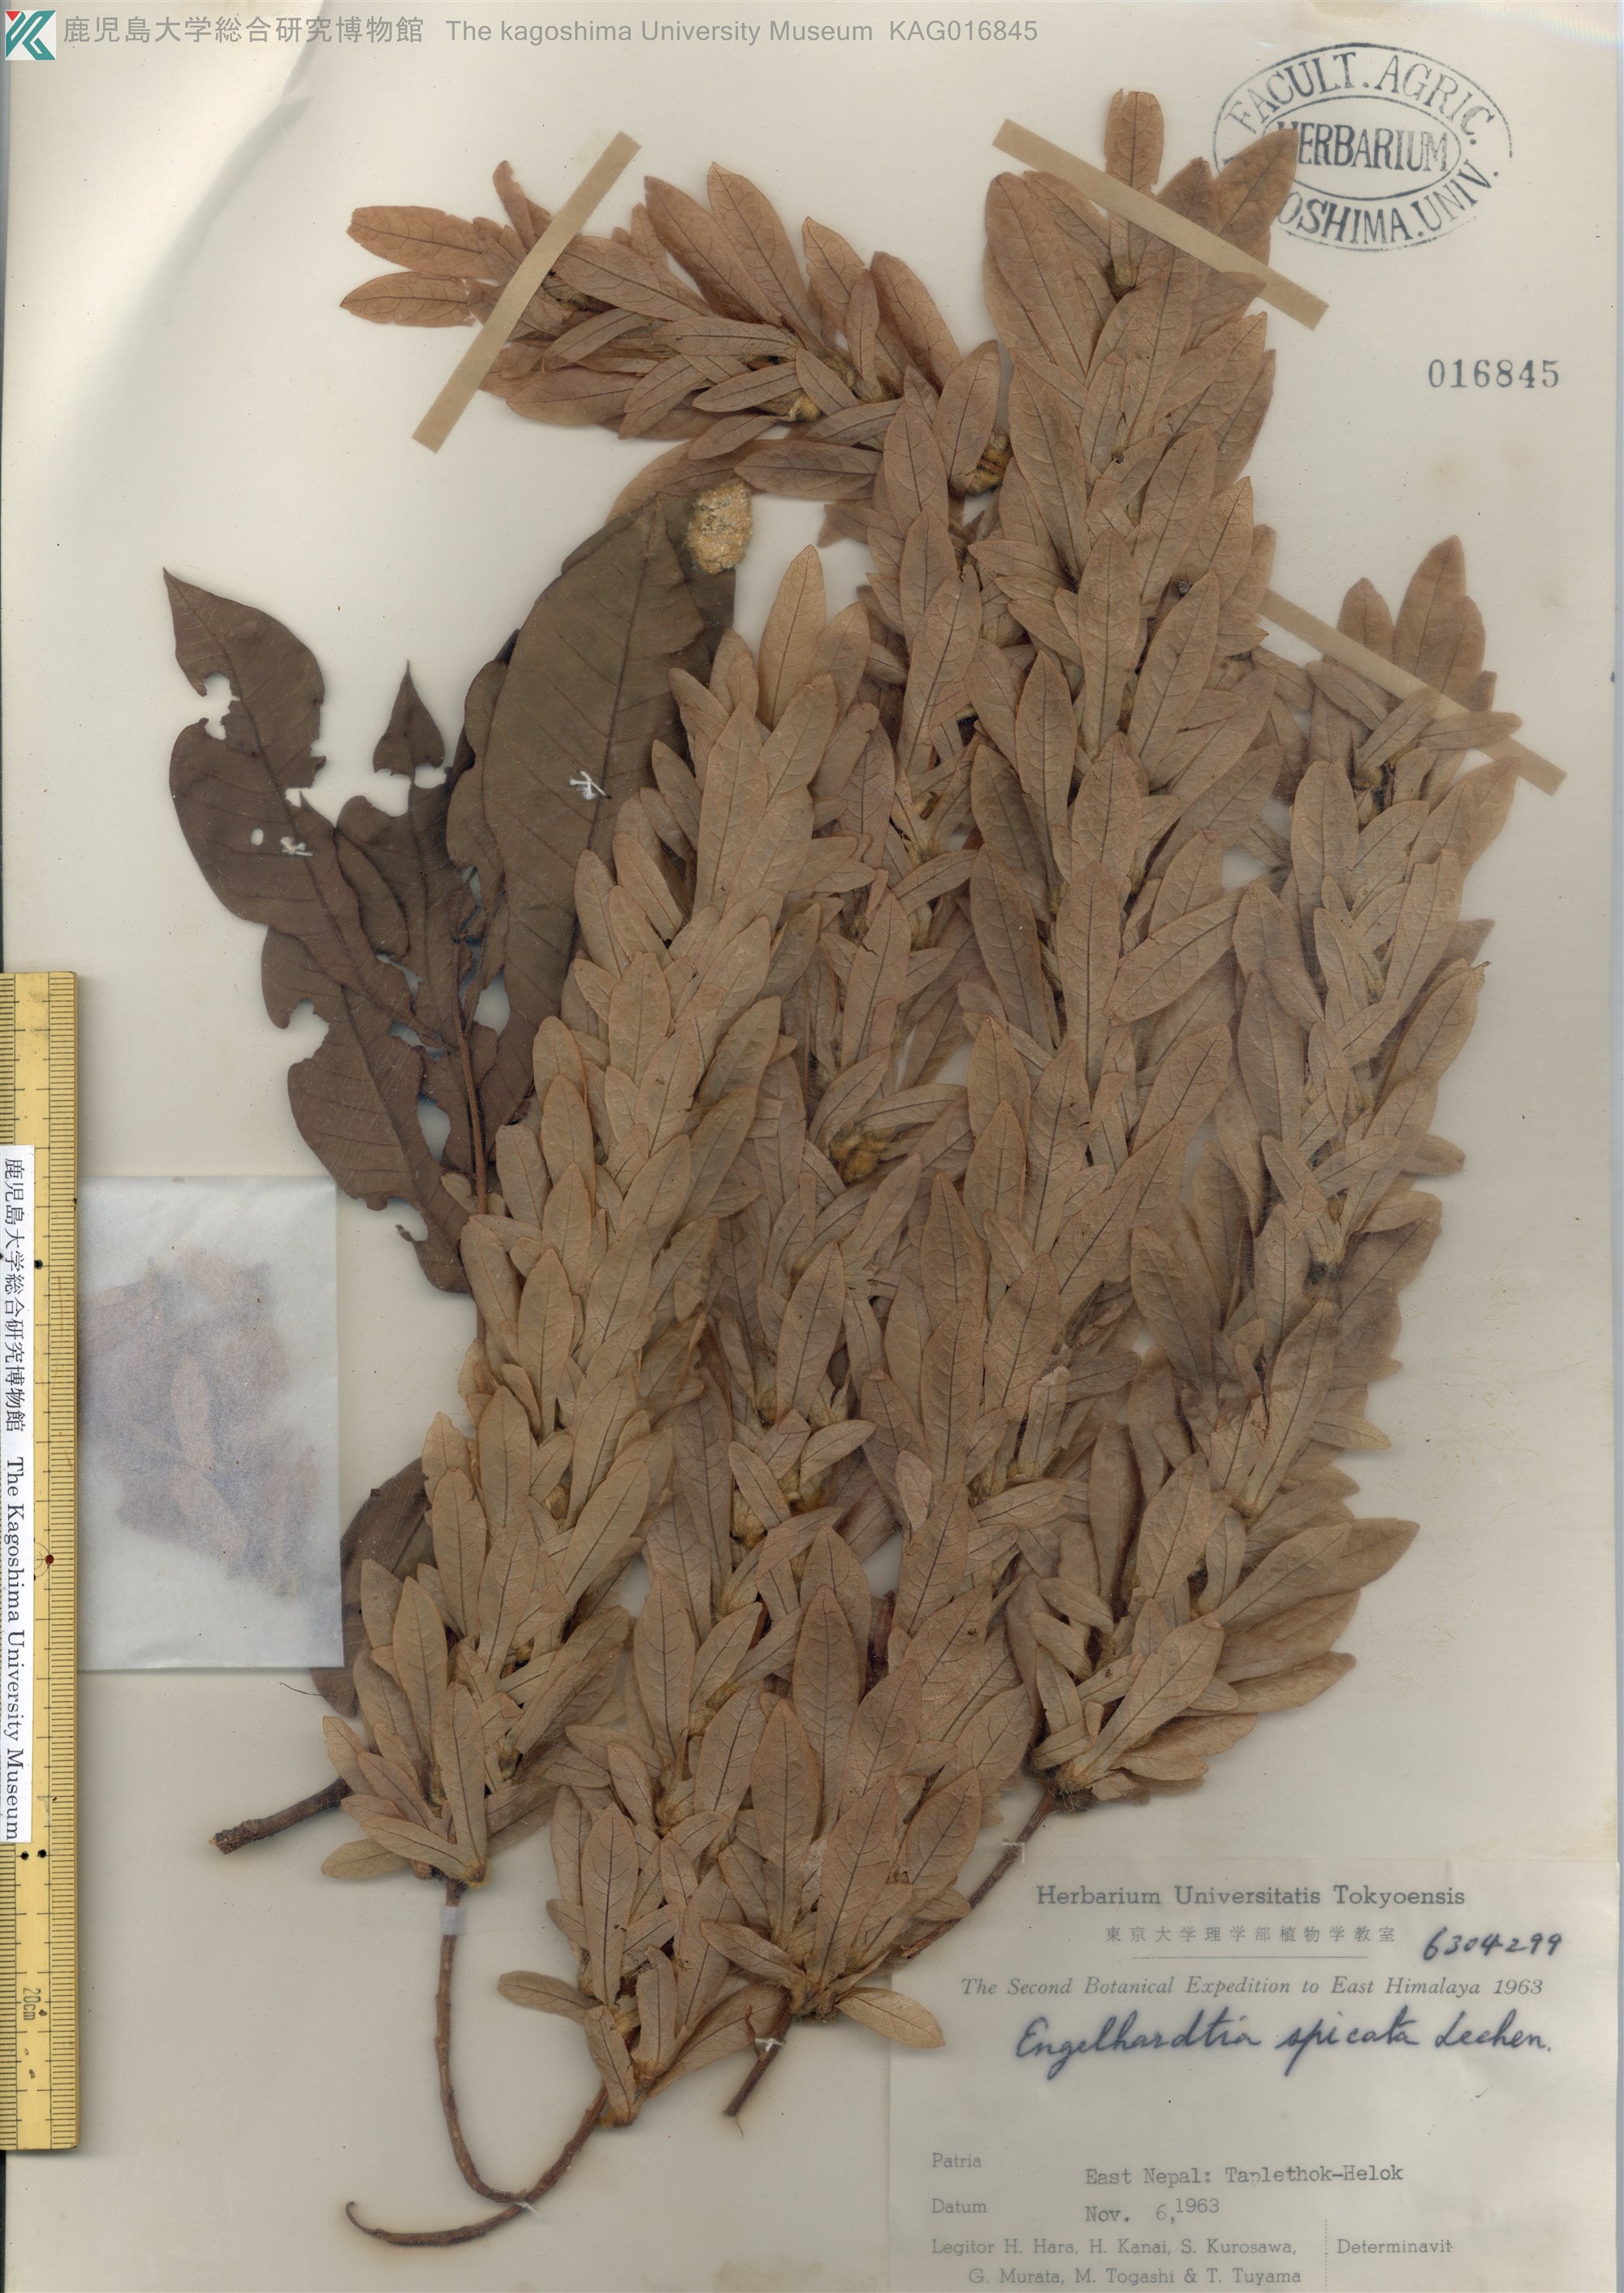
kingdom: Plantae
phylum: Tracheophyta
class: Magnoliopsida
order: Fagales
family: Juglandaceae
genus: Engelhardtia
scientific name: Engelhardtia spicata
